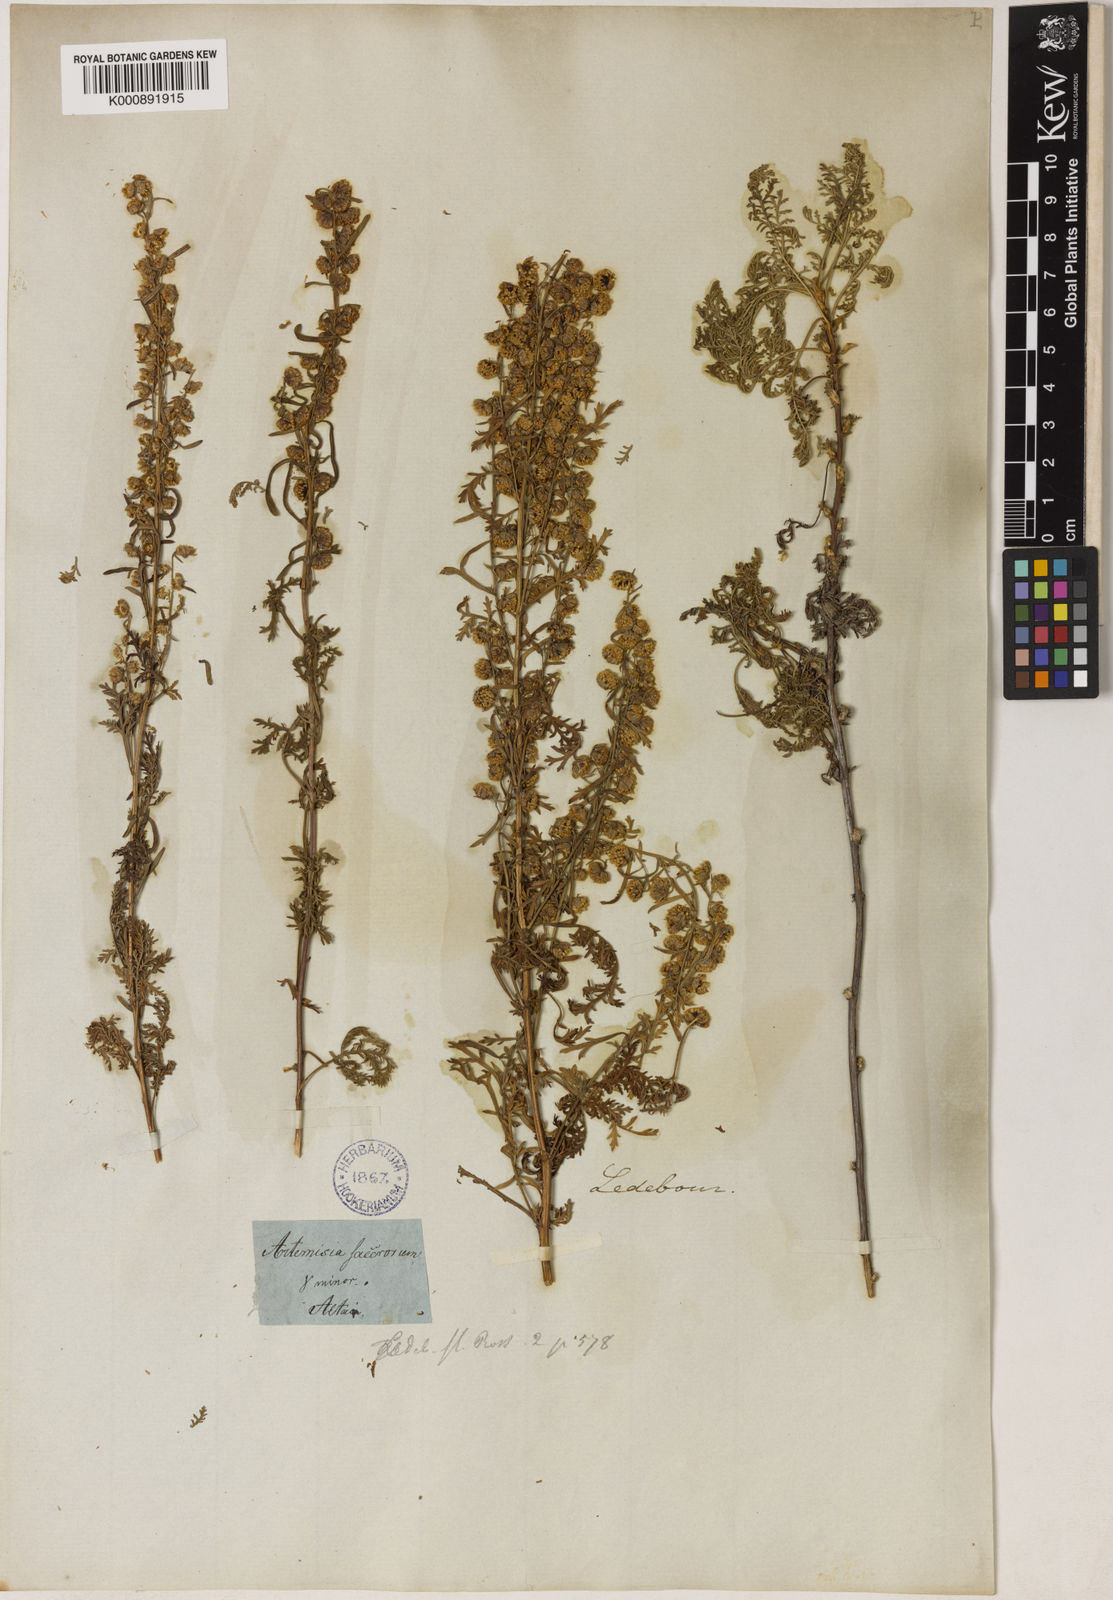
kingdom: Plantae
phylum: Tracheophyta
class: Magnoliopsida
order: Asterales
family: Asteraceae
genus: Artemisia
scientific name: Artemisia lagopus
